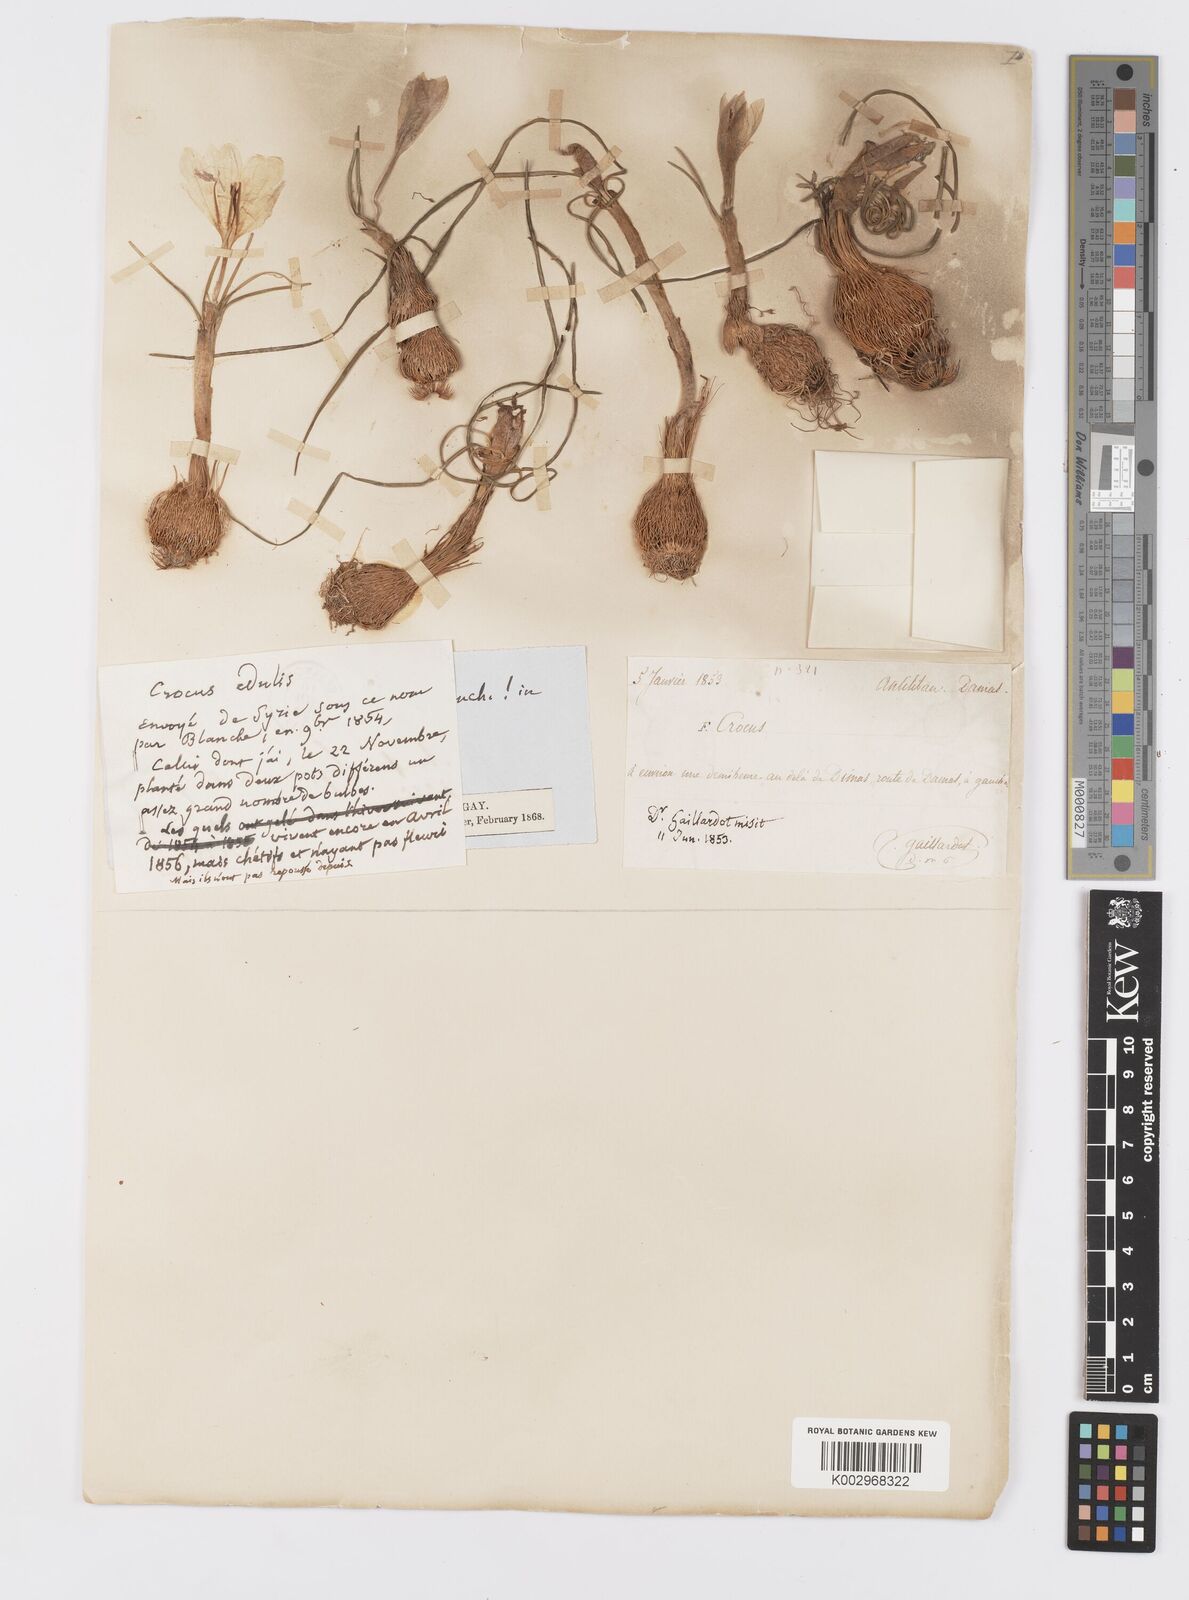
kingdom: Plantae
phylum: Tracheophyta
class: Liliopsida
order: Asparagales
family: Iridaceae
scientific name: Iridaceae
